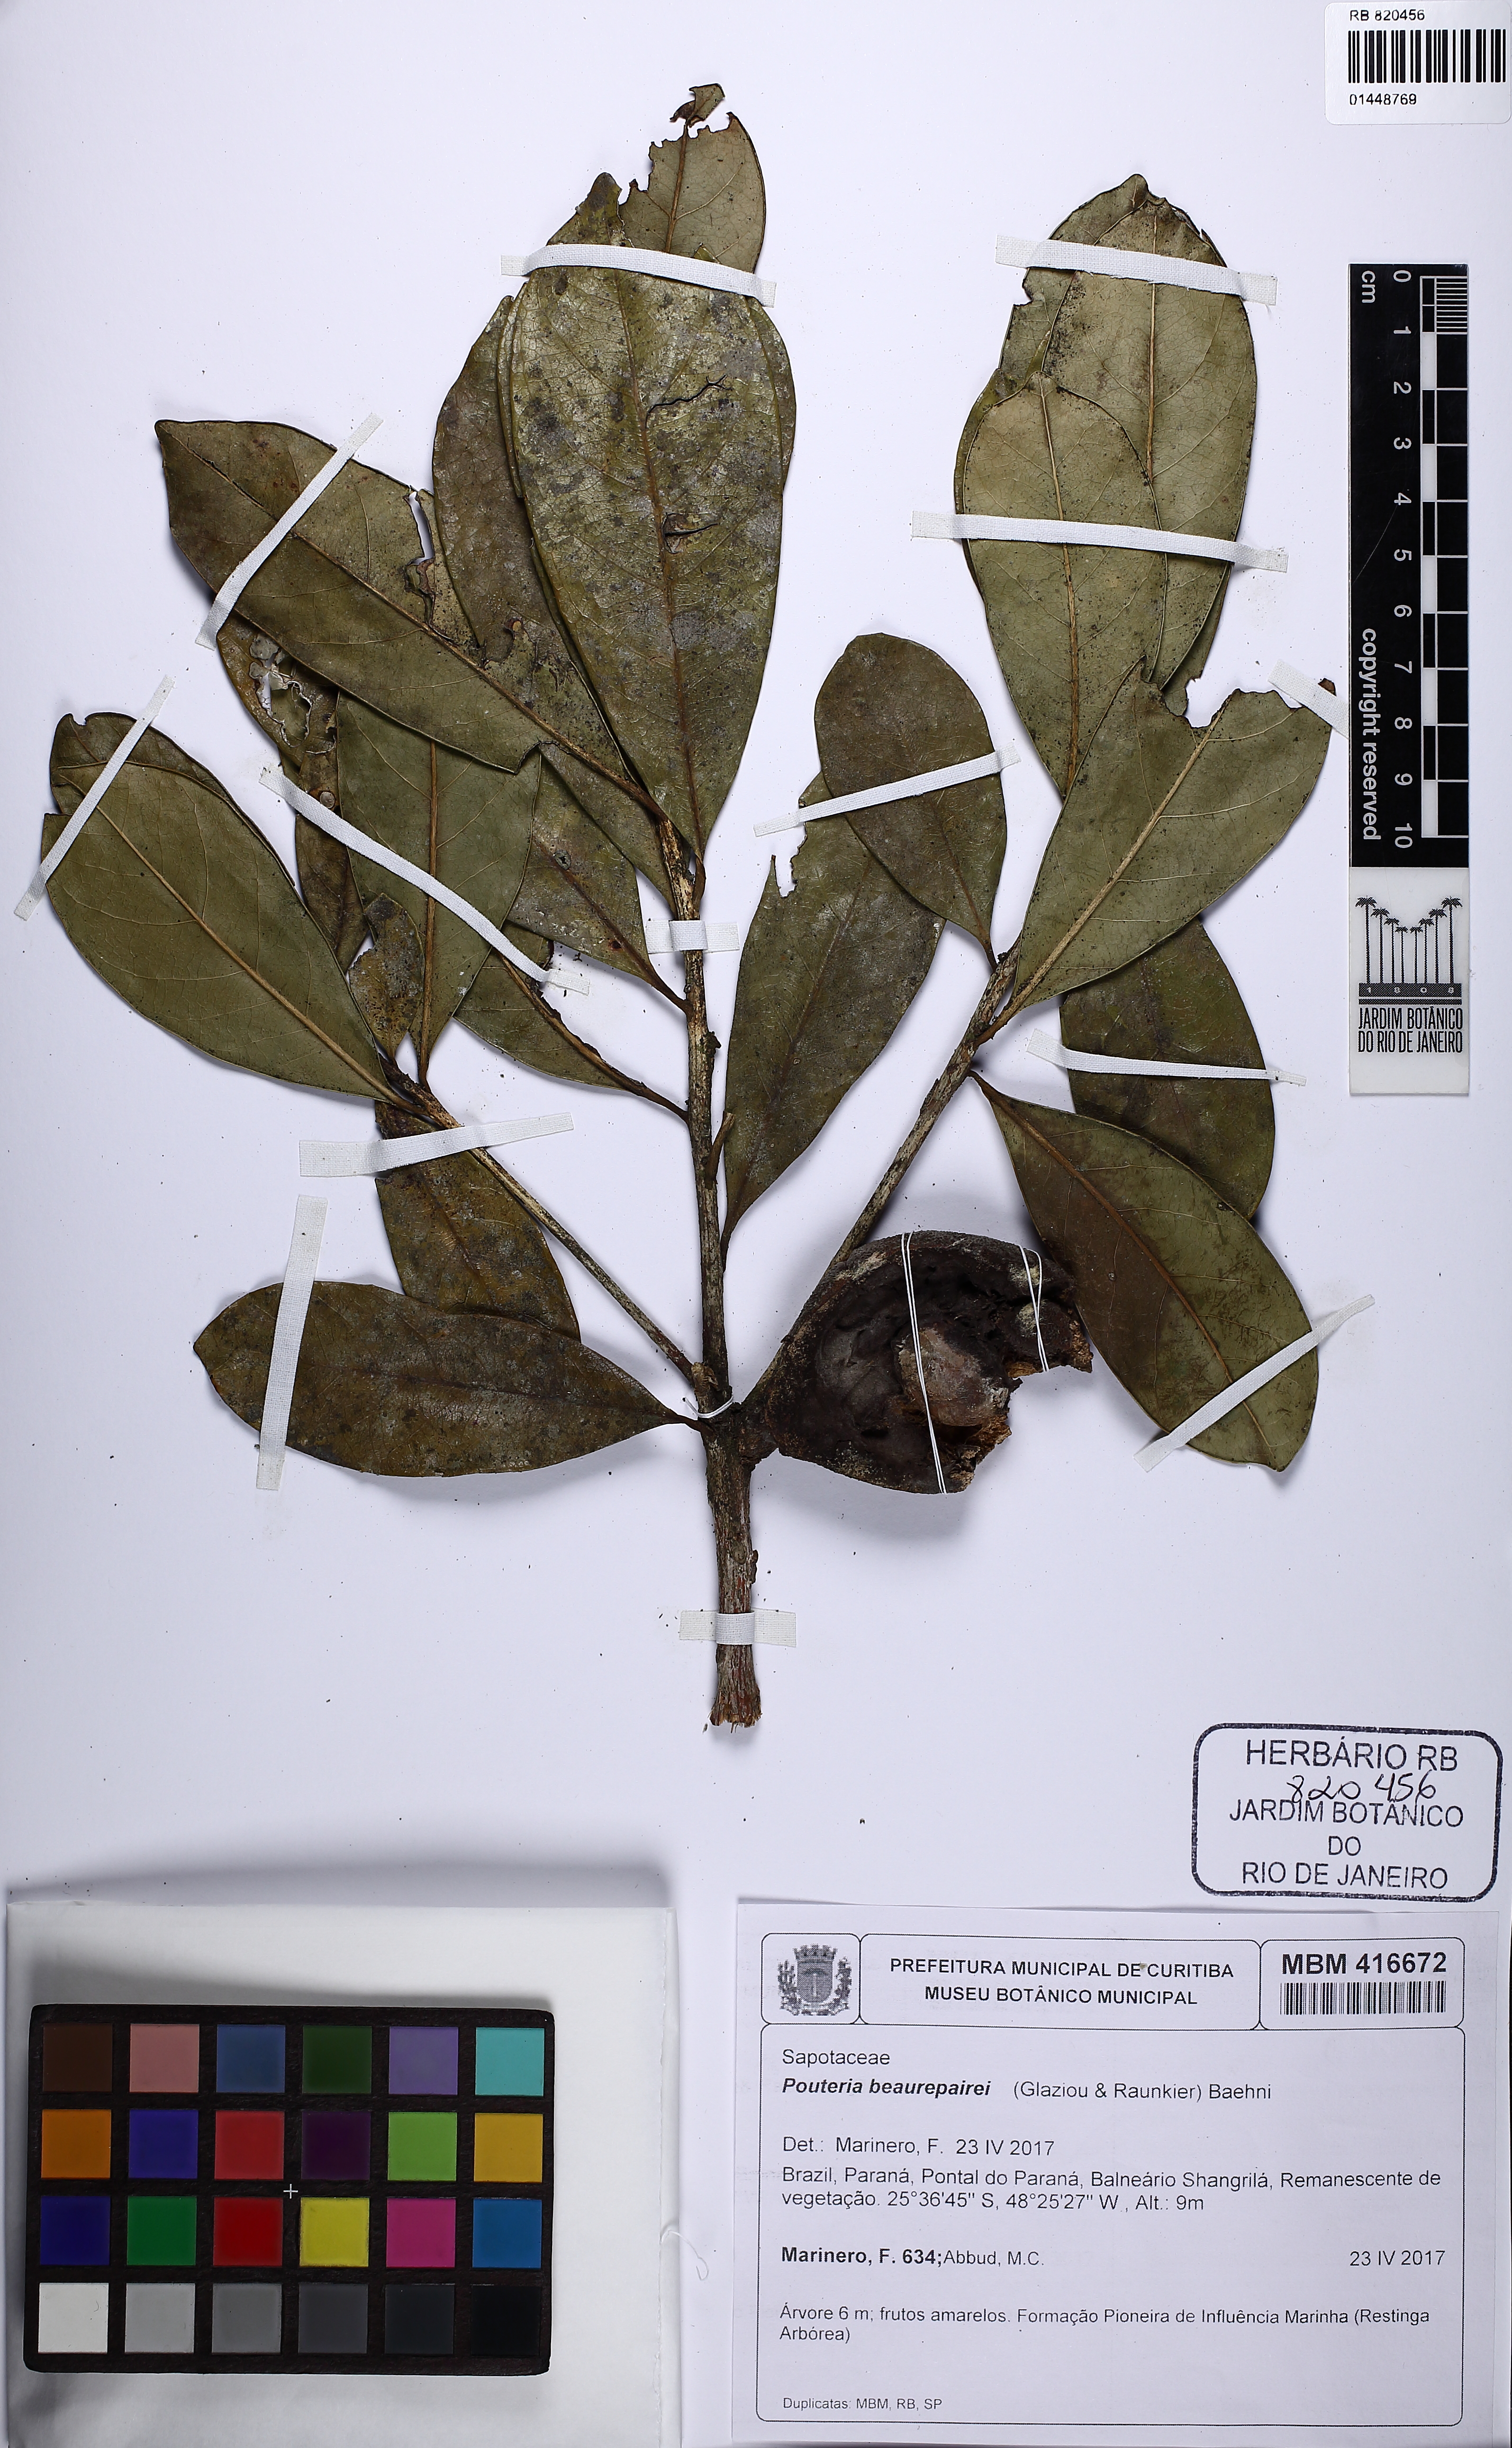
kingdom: Plantae
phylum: Tracheophyta
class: Magnoliopsida
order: Ericales
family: Sapotaceae
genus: Pouteria
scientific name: Pouteria beaurepairei
